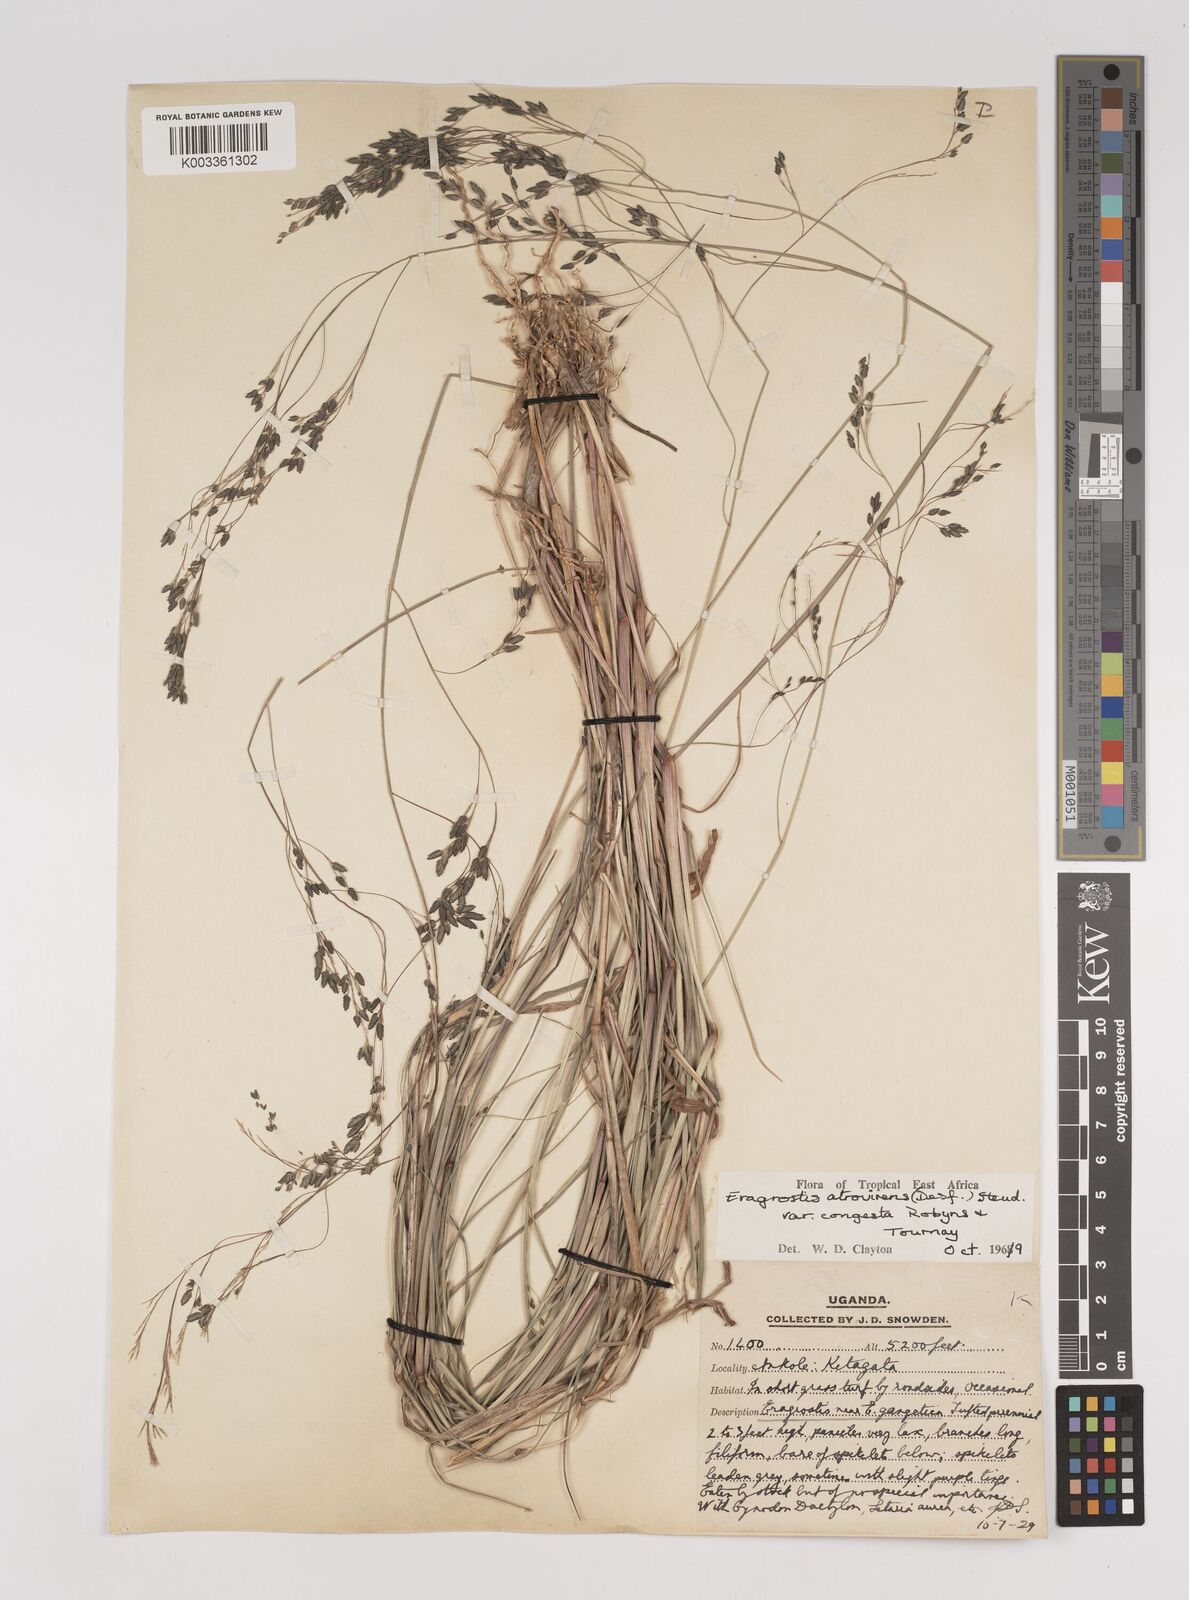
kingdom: Plantae
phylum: Tracheophyta
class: Liliopsida
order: Poales
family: Poaceae
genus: Eragrostis
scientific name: Eragrostis botryodes
